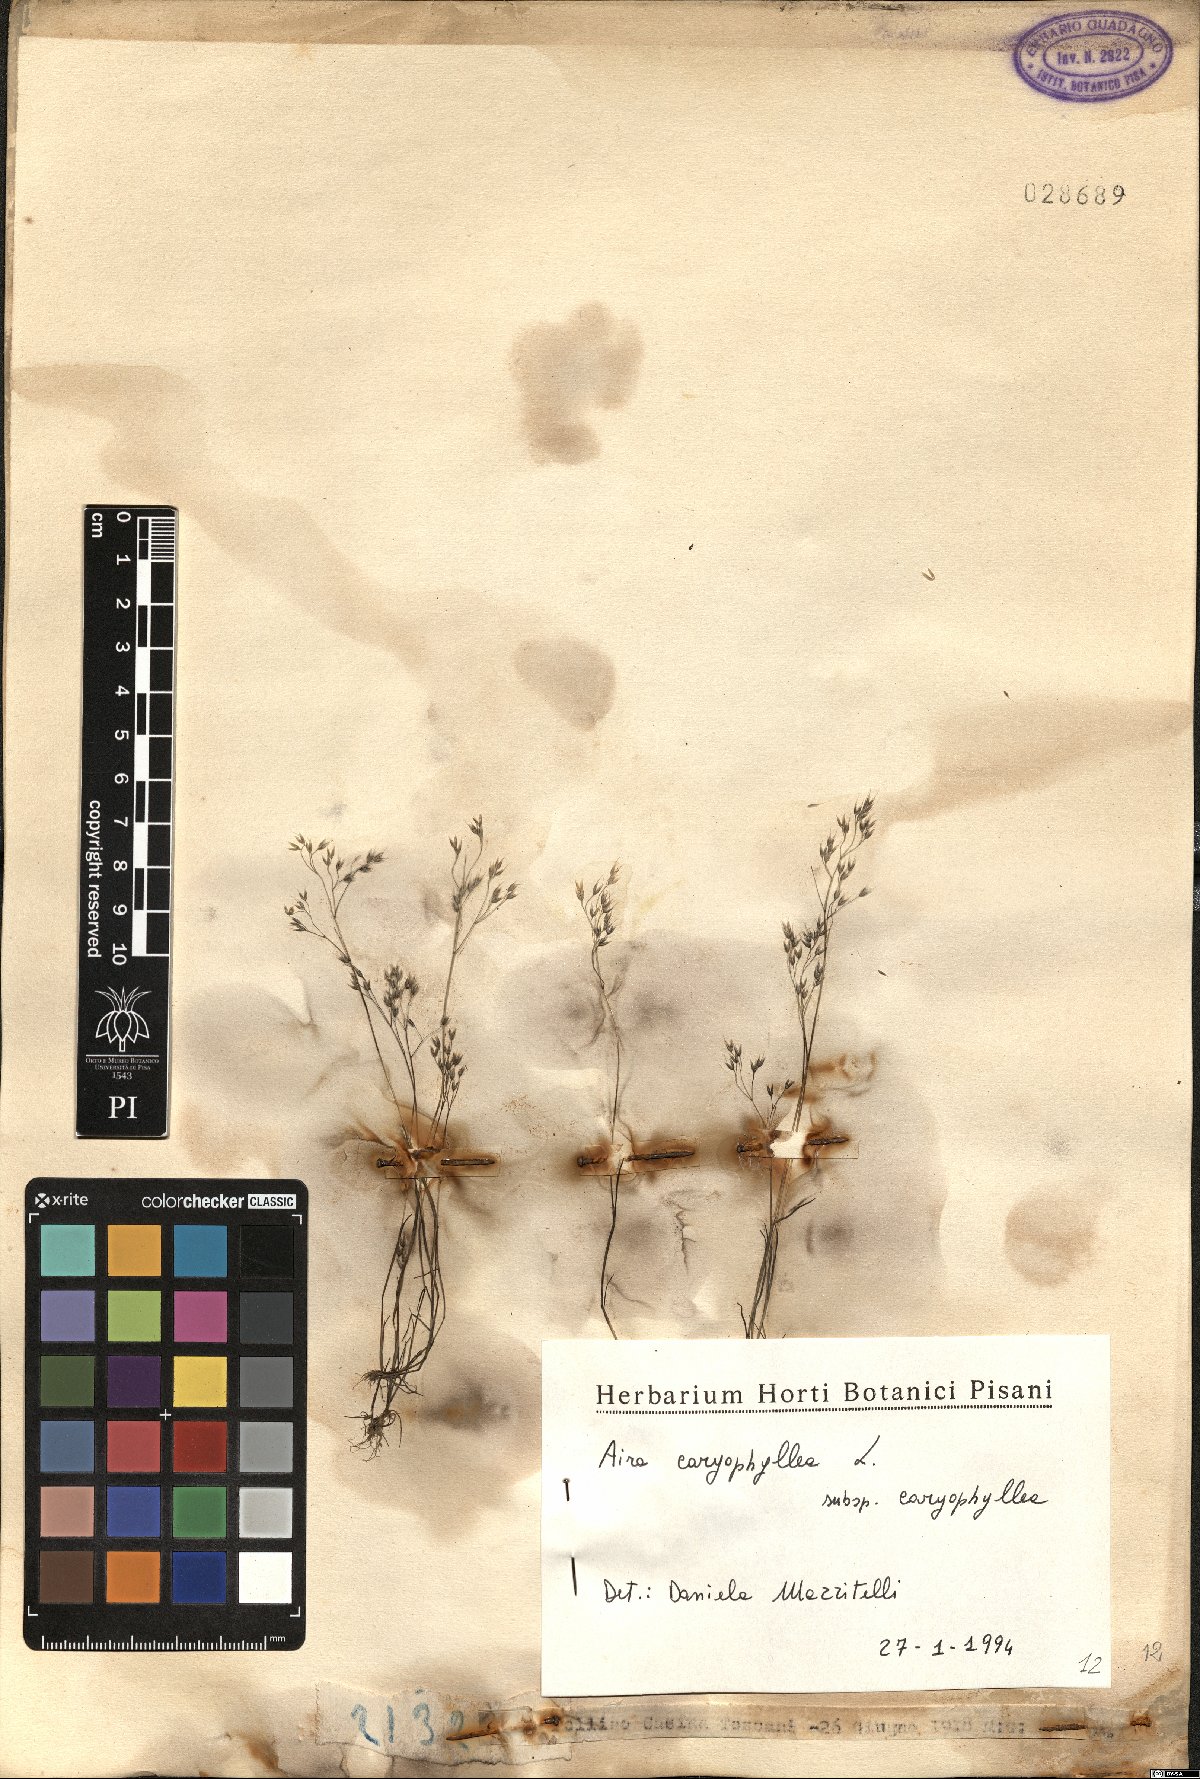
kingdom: Plantae
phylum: Tracheophyta
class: Liliopsida
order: Poales
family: Poaceae
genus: Aira
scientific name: Aira caryophyllea
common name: Silver hairgrass
